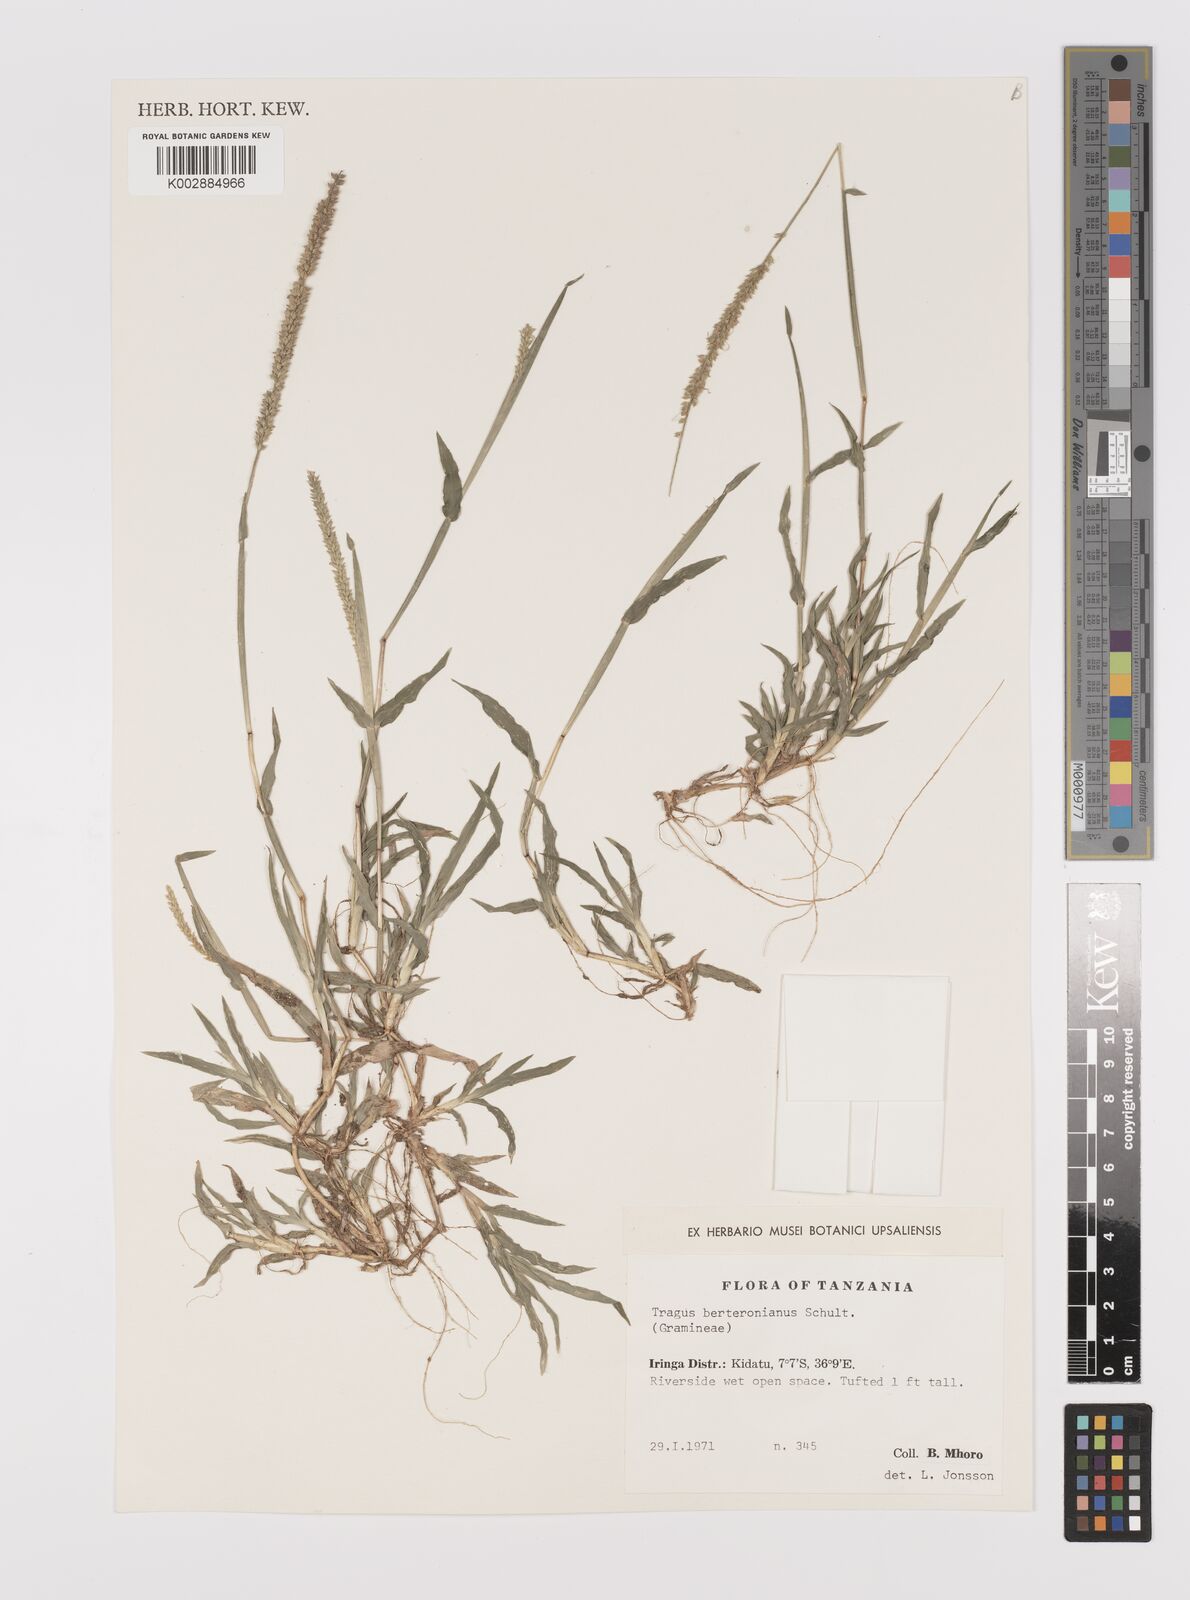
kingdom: Plantae
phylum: Tracheophyta
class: Liliopsida
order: Poales
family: Poaceae
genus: Tragus
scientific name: Tragus berteronianus
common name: African bur-grass
